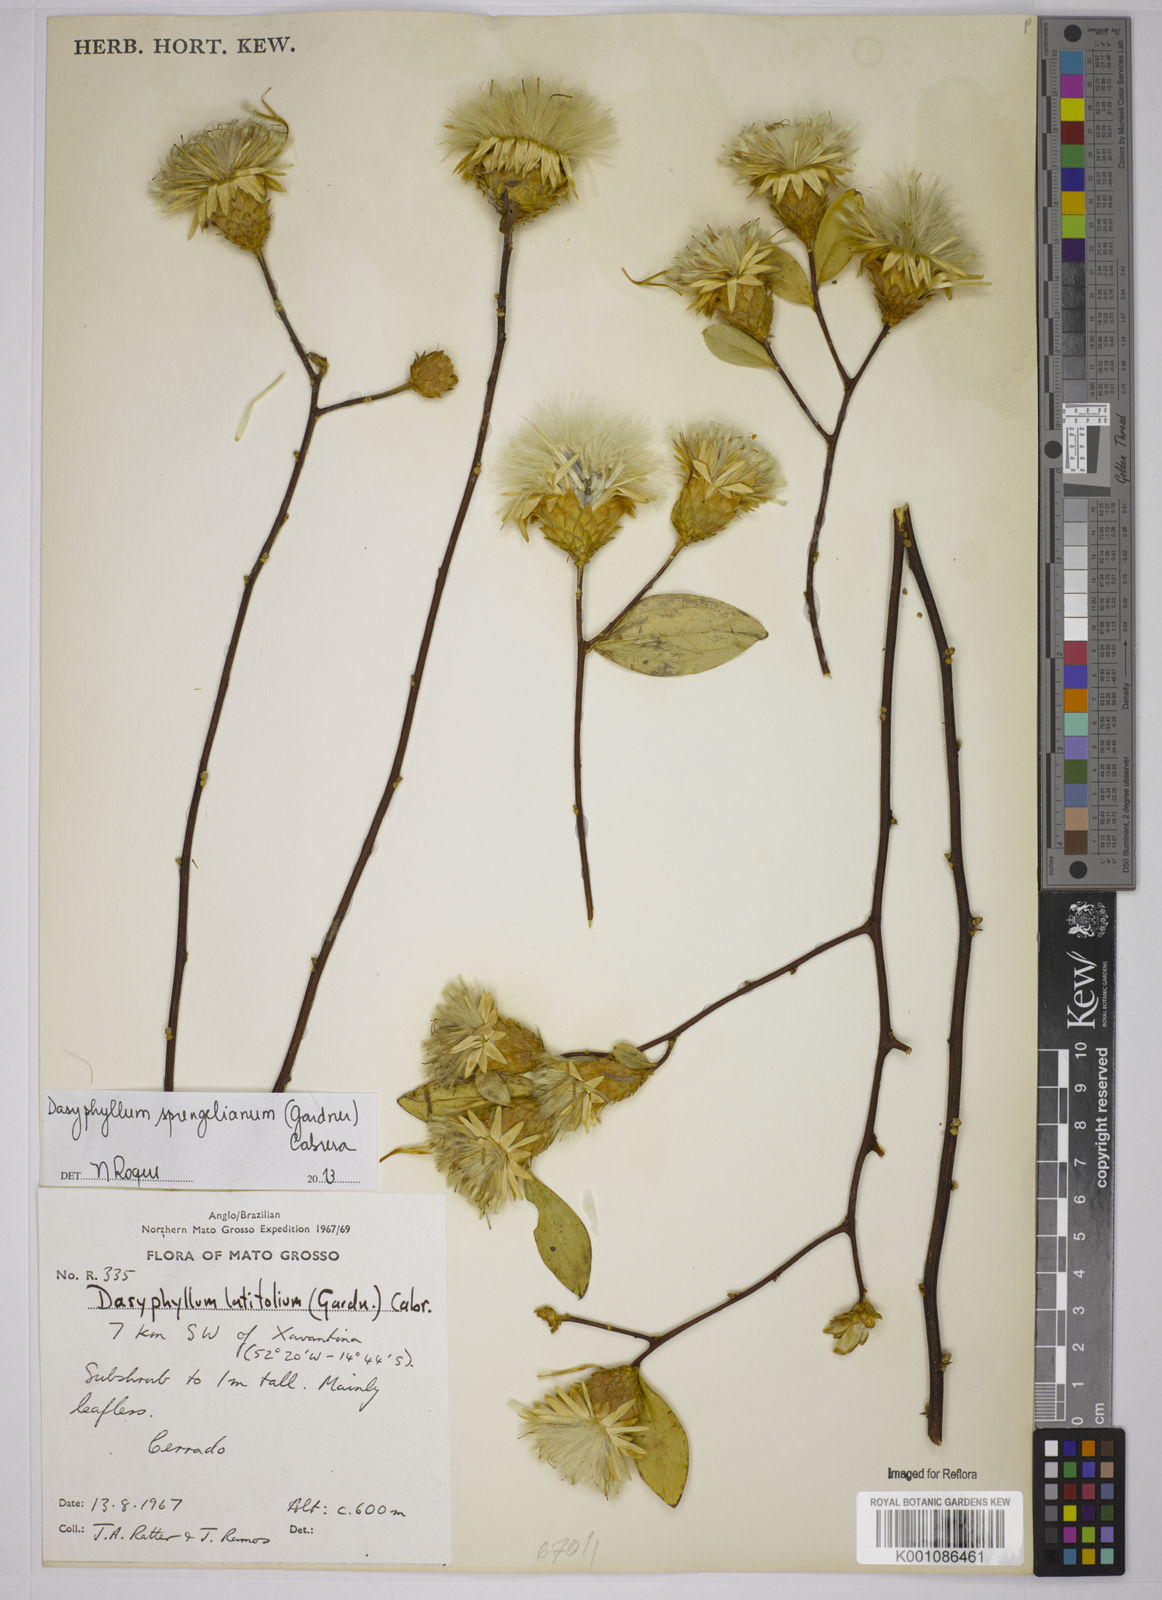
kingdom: Plantae
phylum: Tracheophyta
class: Magnoliopsida
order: Asterales
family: Asteraceae
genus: Dasyphyllum
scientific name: Dasyphyllum sprengelianum
